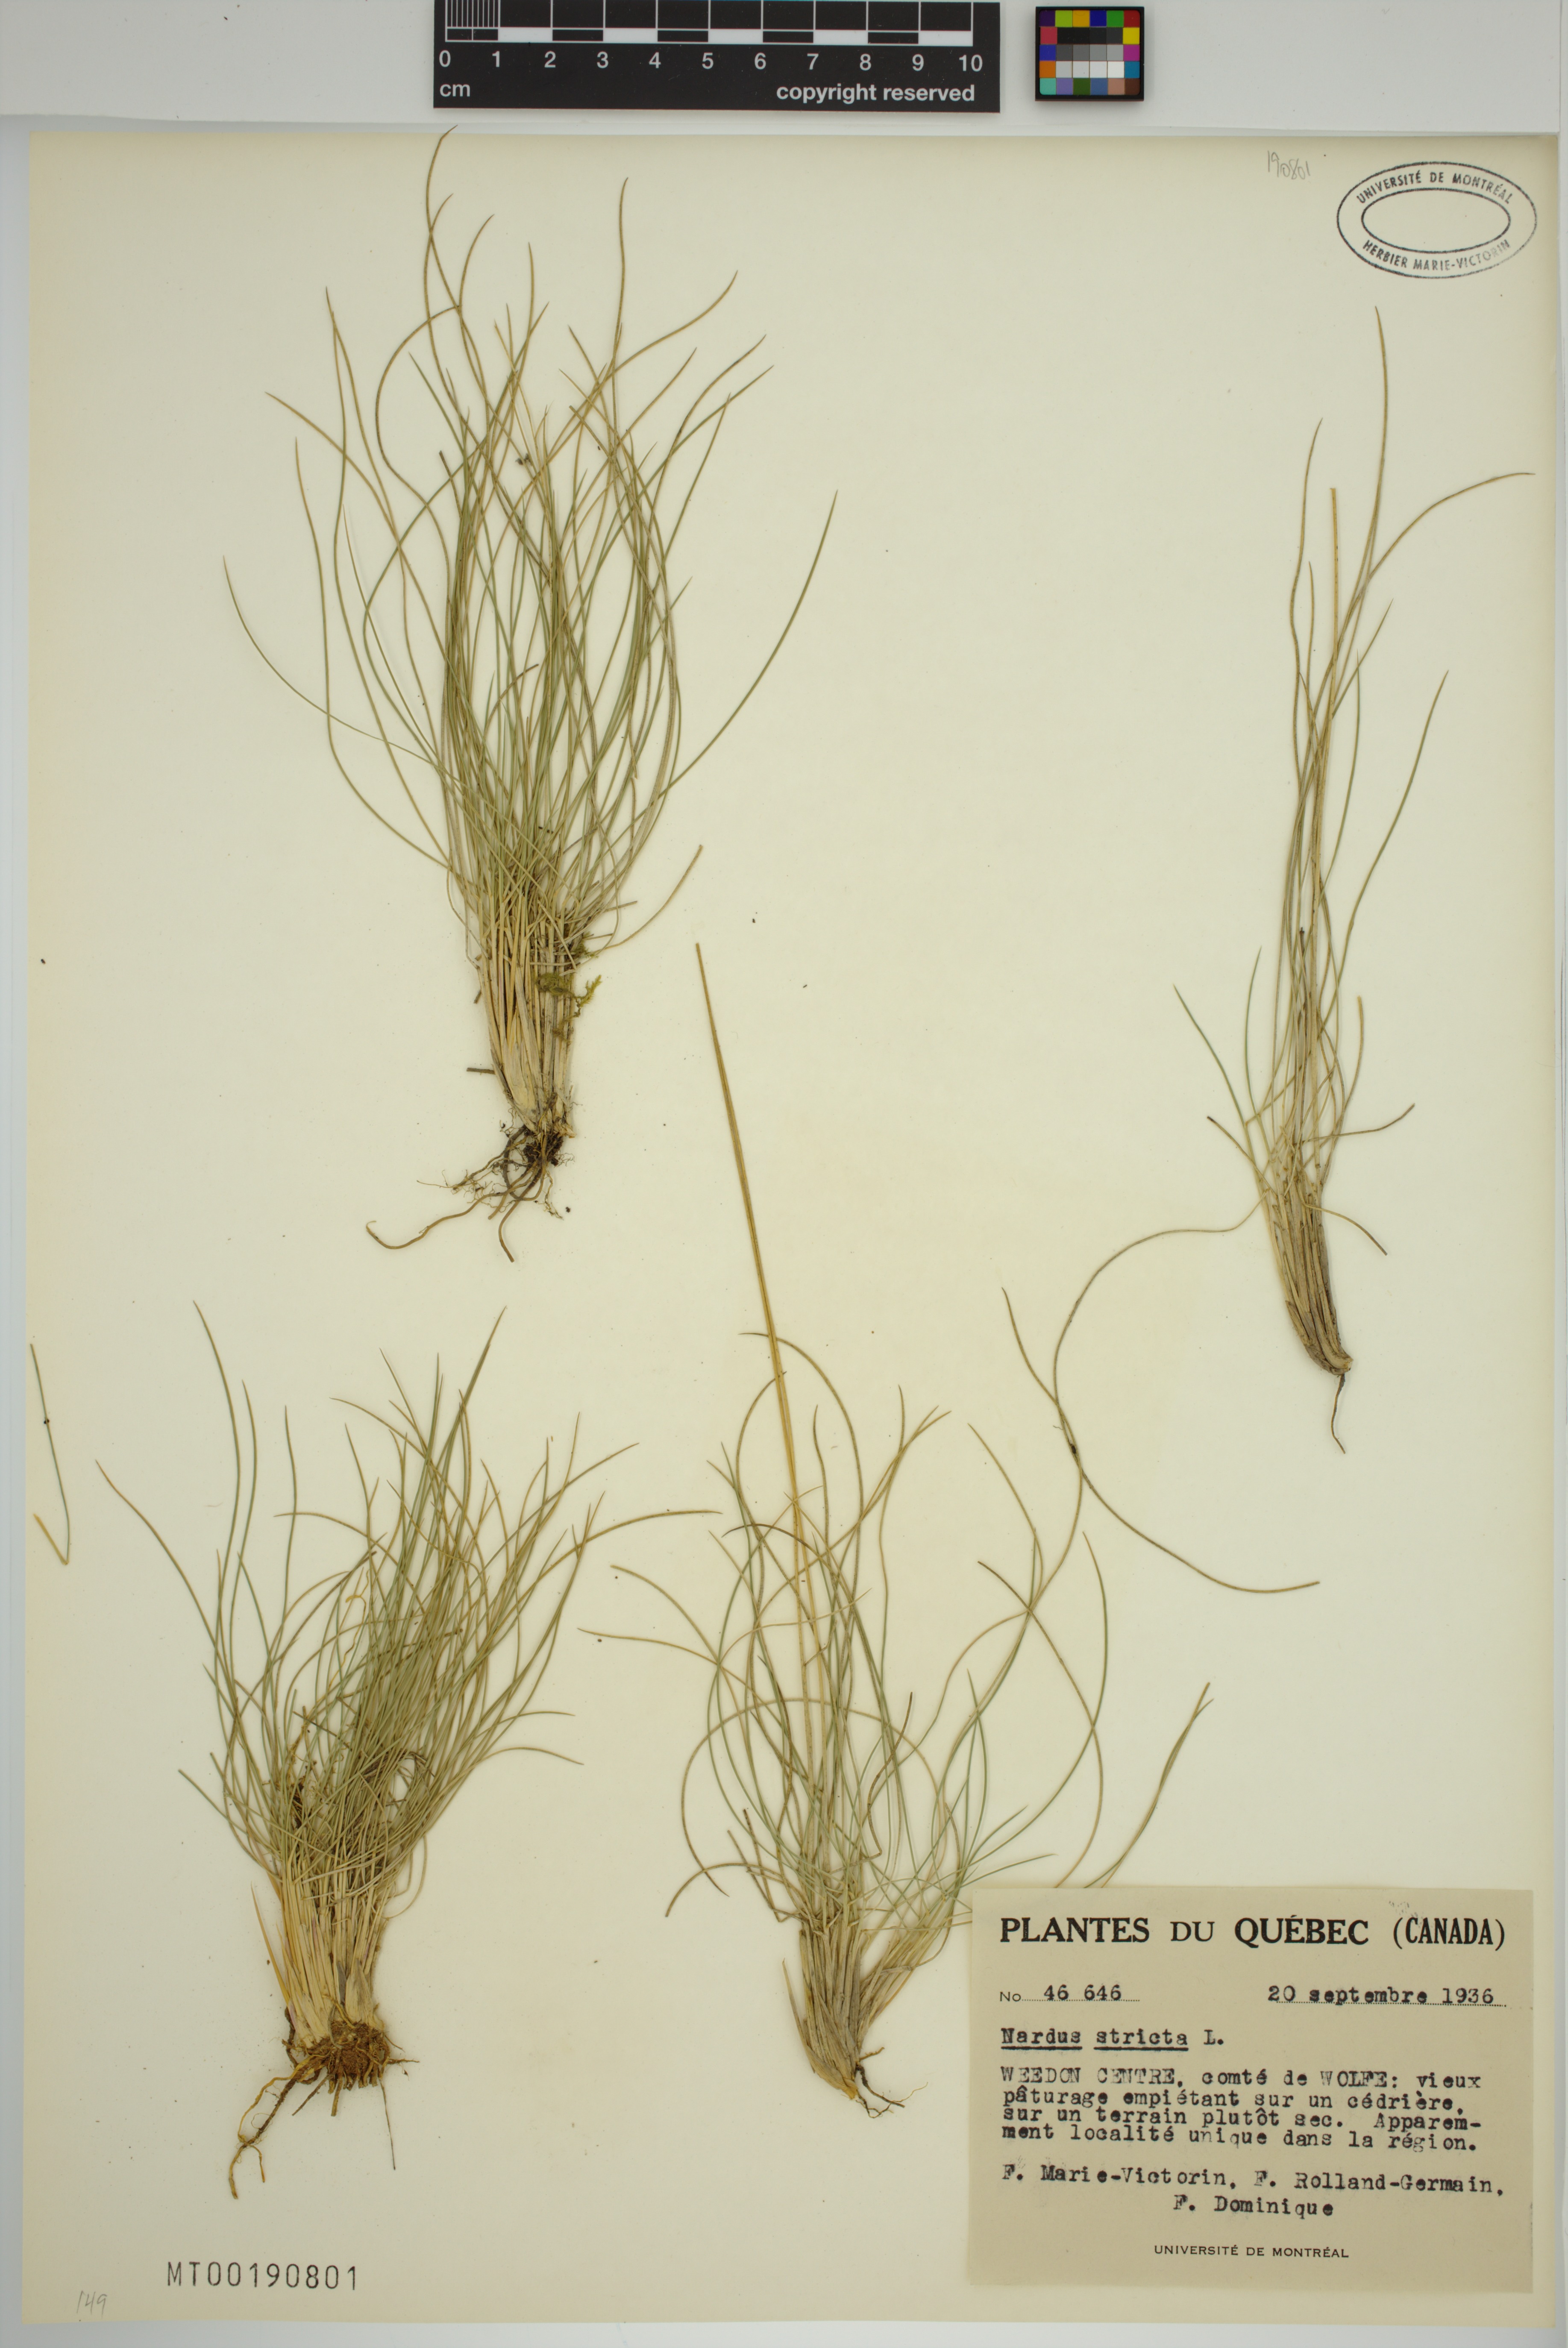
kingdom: Plantae
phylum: Tracheophyta
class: Liliopsida
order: Poales
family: Poaceae
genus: Nardus
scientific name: Nardus stricta
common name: Mat-grass
